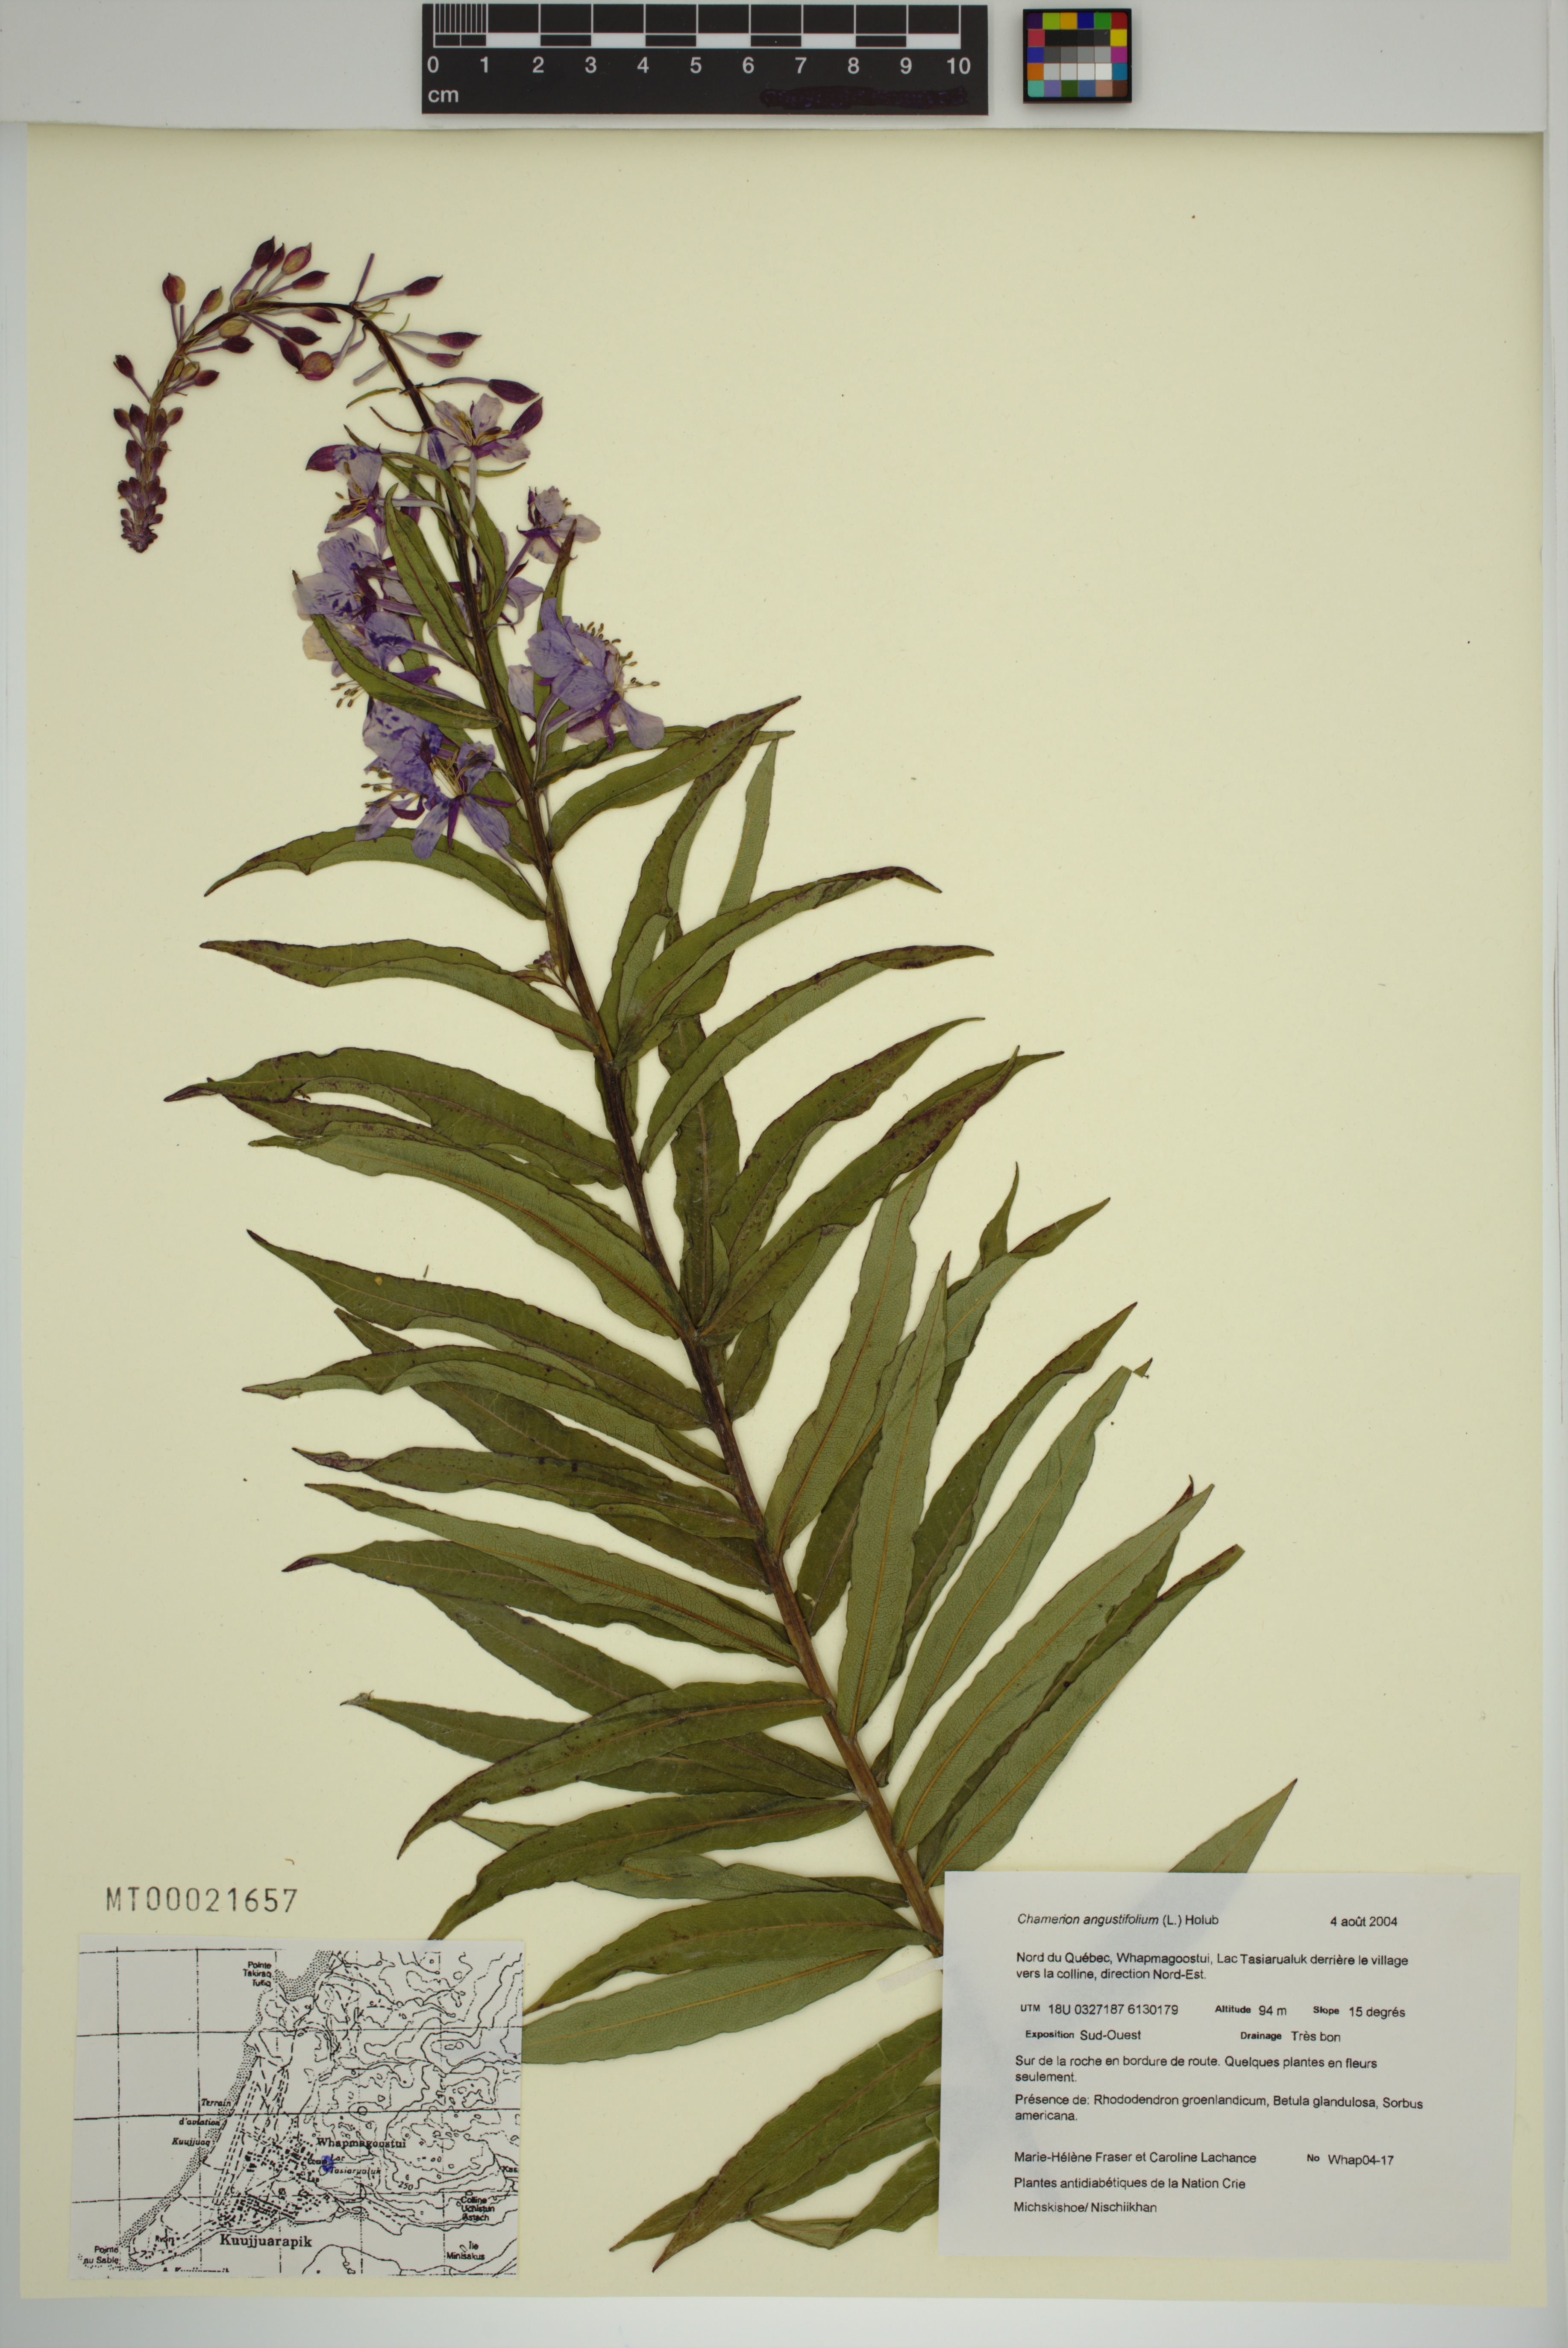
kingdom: Plantae
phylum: Tracheophyta
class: Magnoliopsida
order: Myrtales
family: Onagraceae
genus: Chamaenerion
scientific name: Chamaenerion angustifolium
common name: Fireweed
